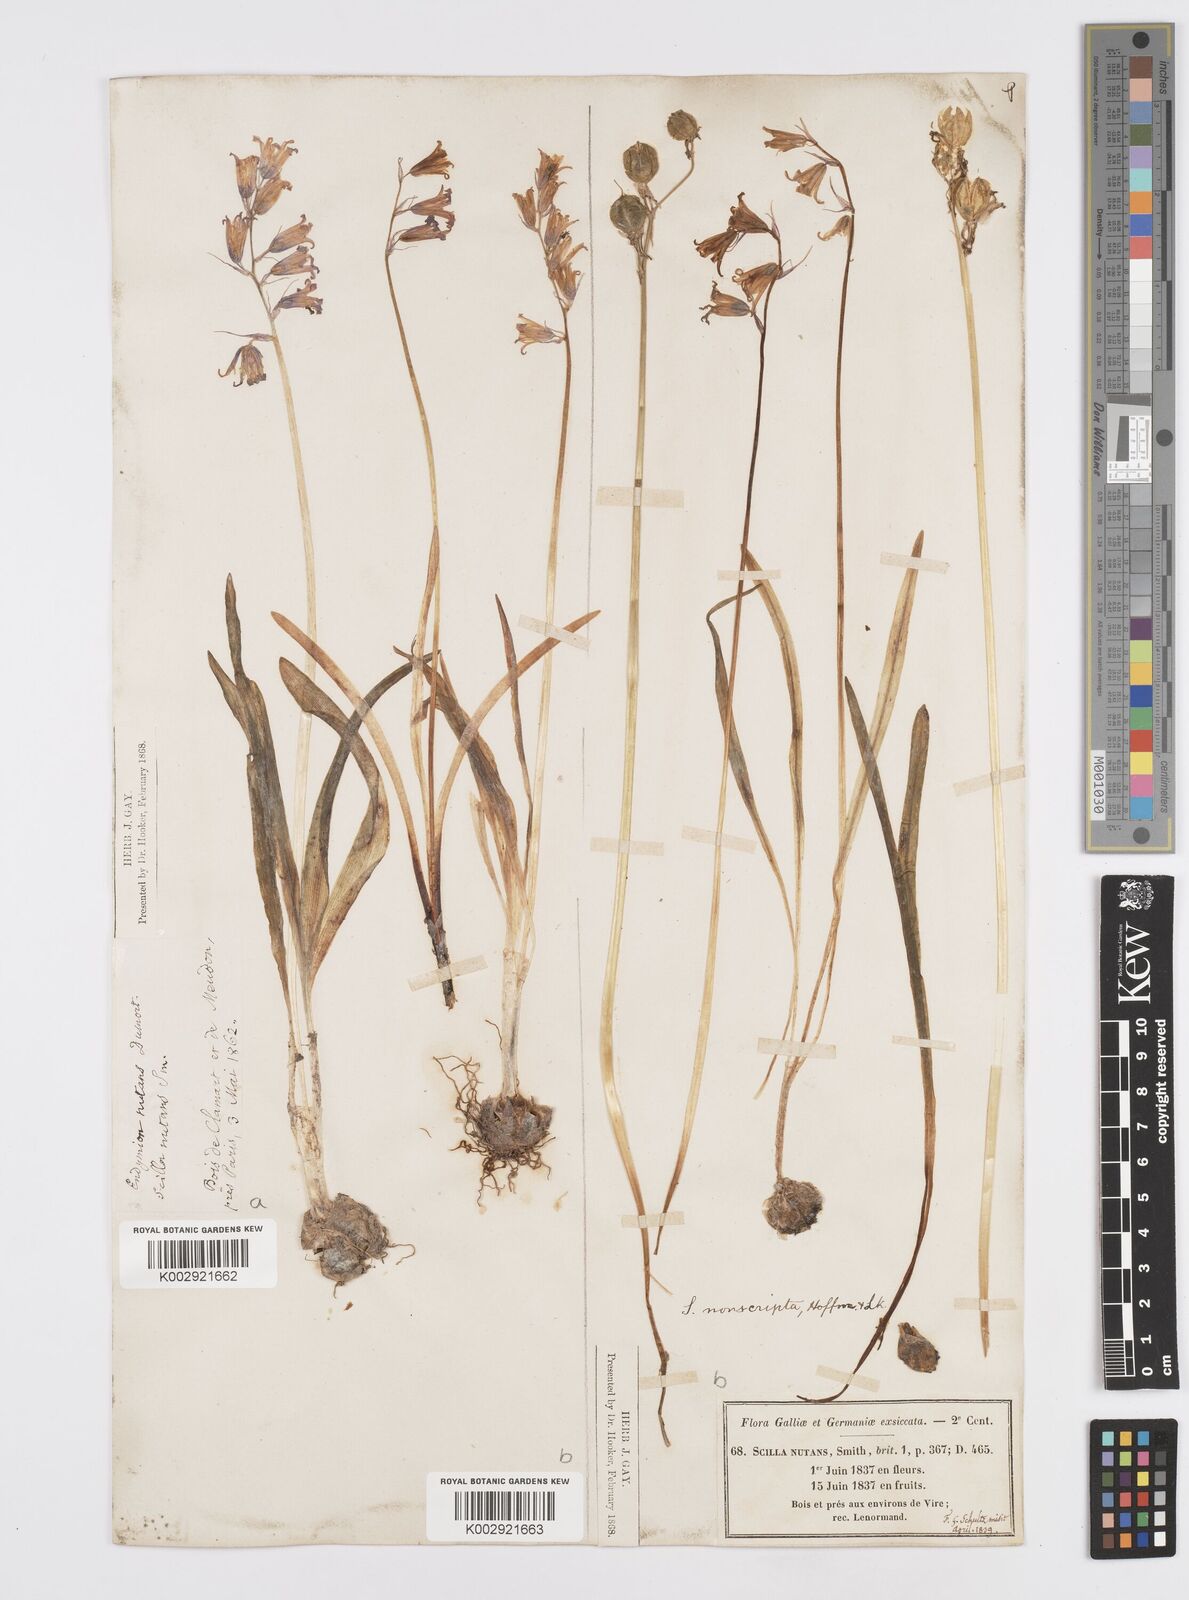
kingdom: Plantae
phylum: Tracheophyta
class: Liliopsida
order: Asparagales
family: Asparagaceae
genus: Hyacinthoides
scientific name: Hyacinthoides non-scripta
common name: Bluebell
